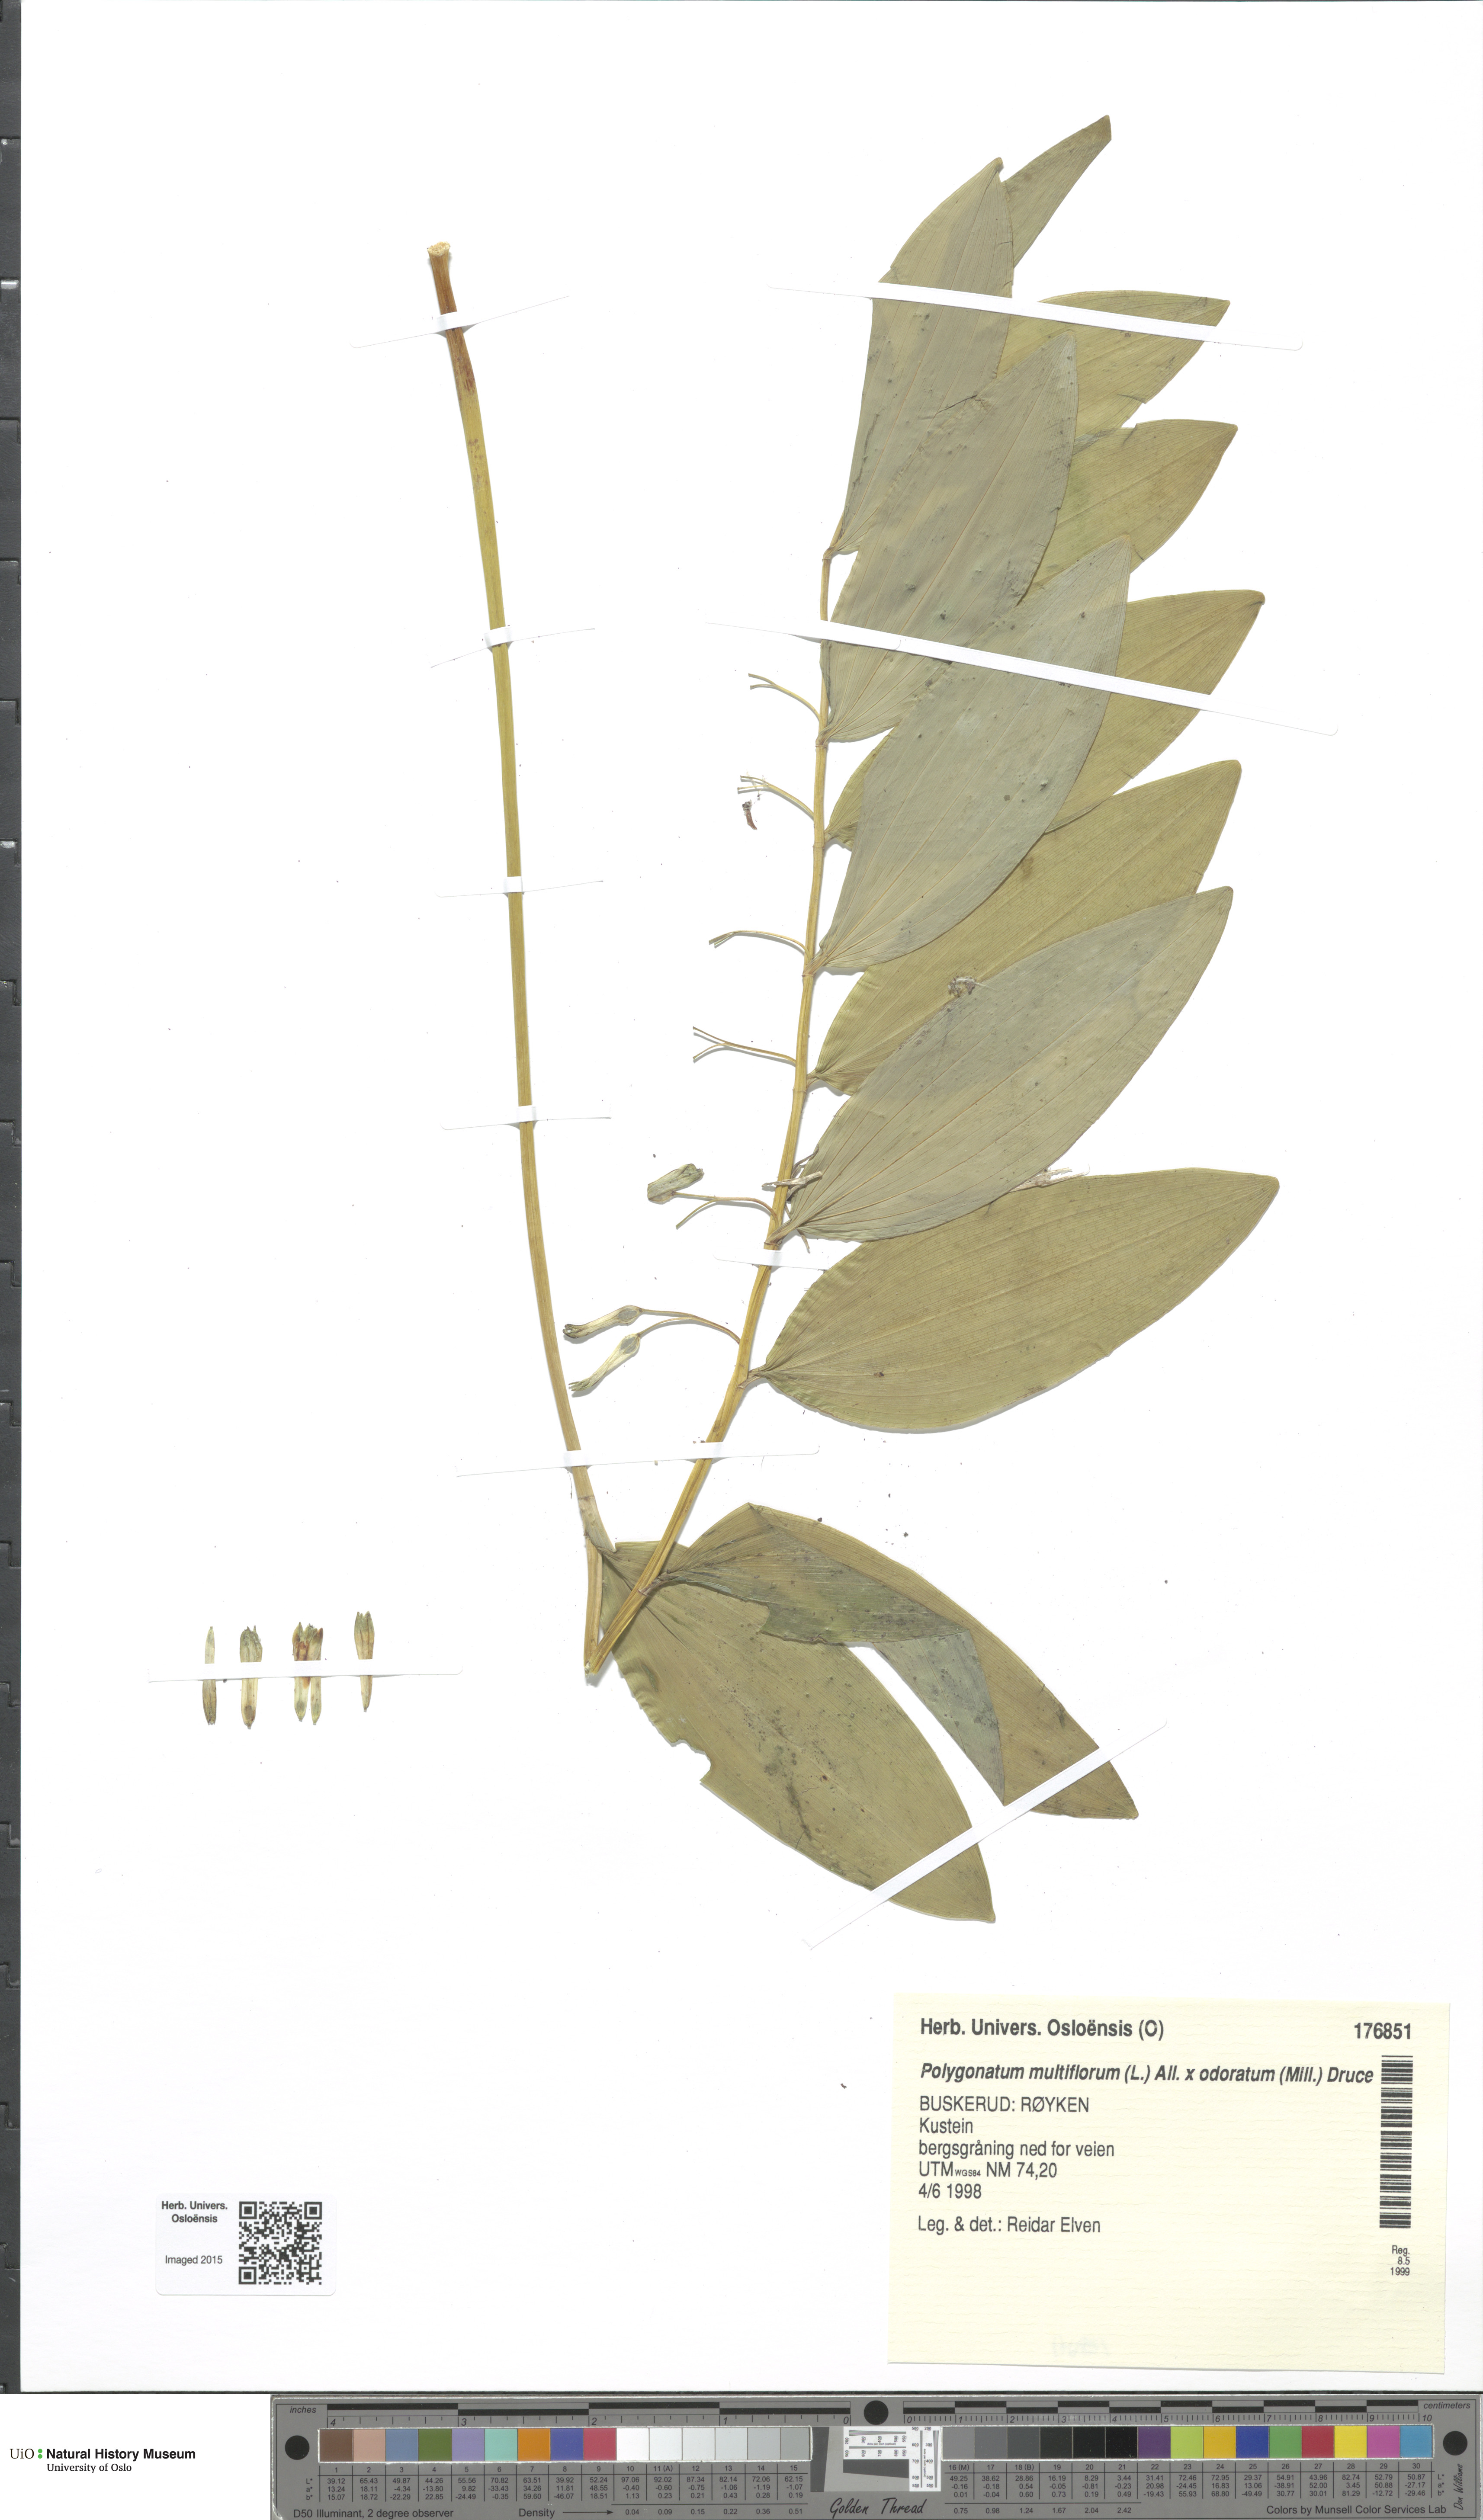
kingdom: Plantae
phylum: Tracheophyta
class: Liliopsida
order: Asparagales
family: Asparagaceae
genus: Polygonatum
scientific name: Polygonatum
